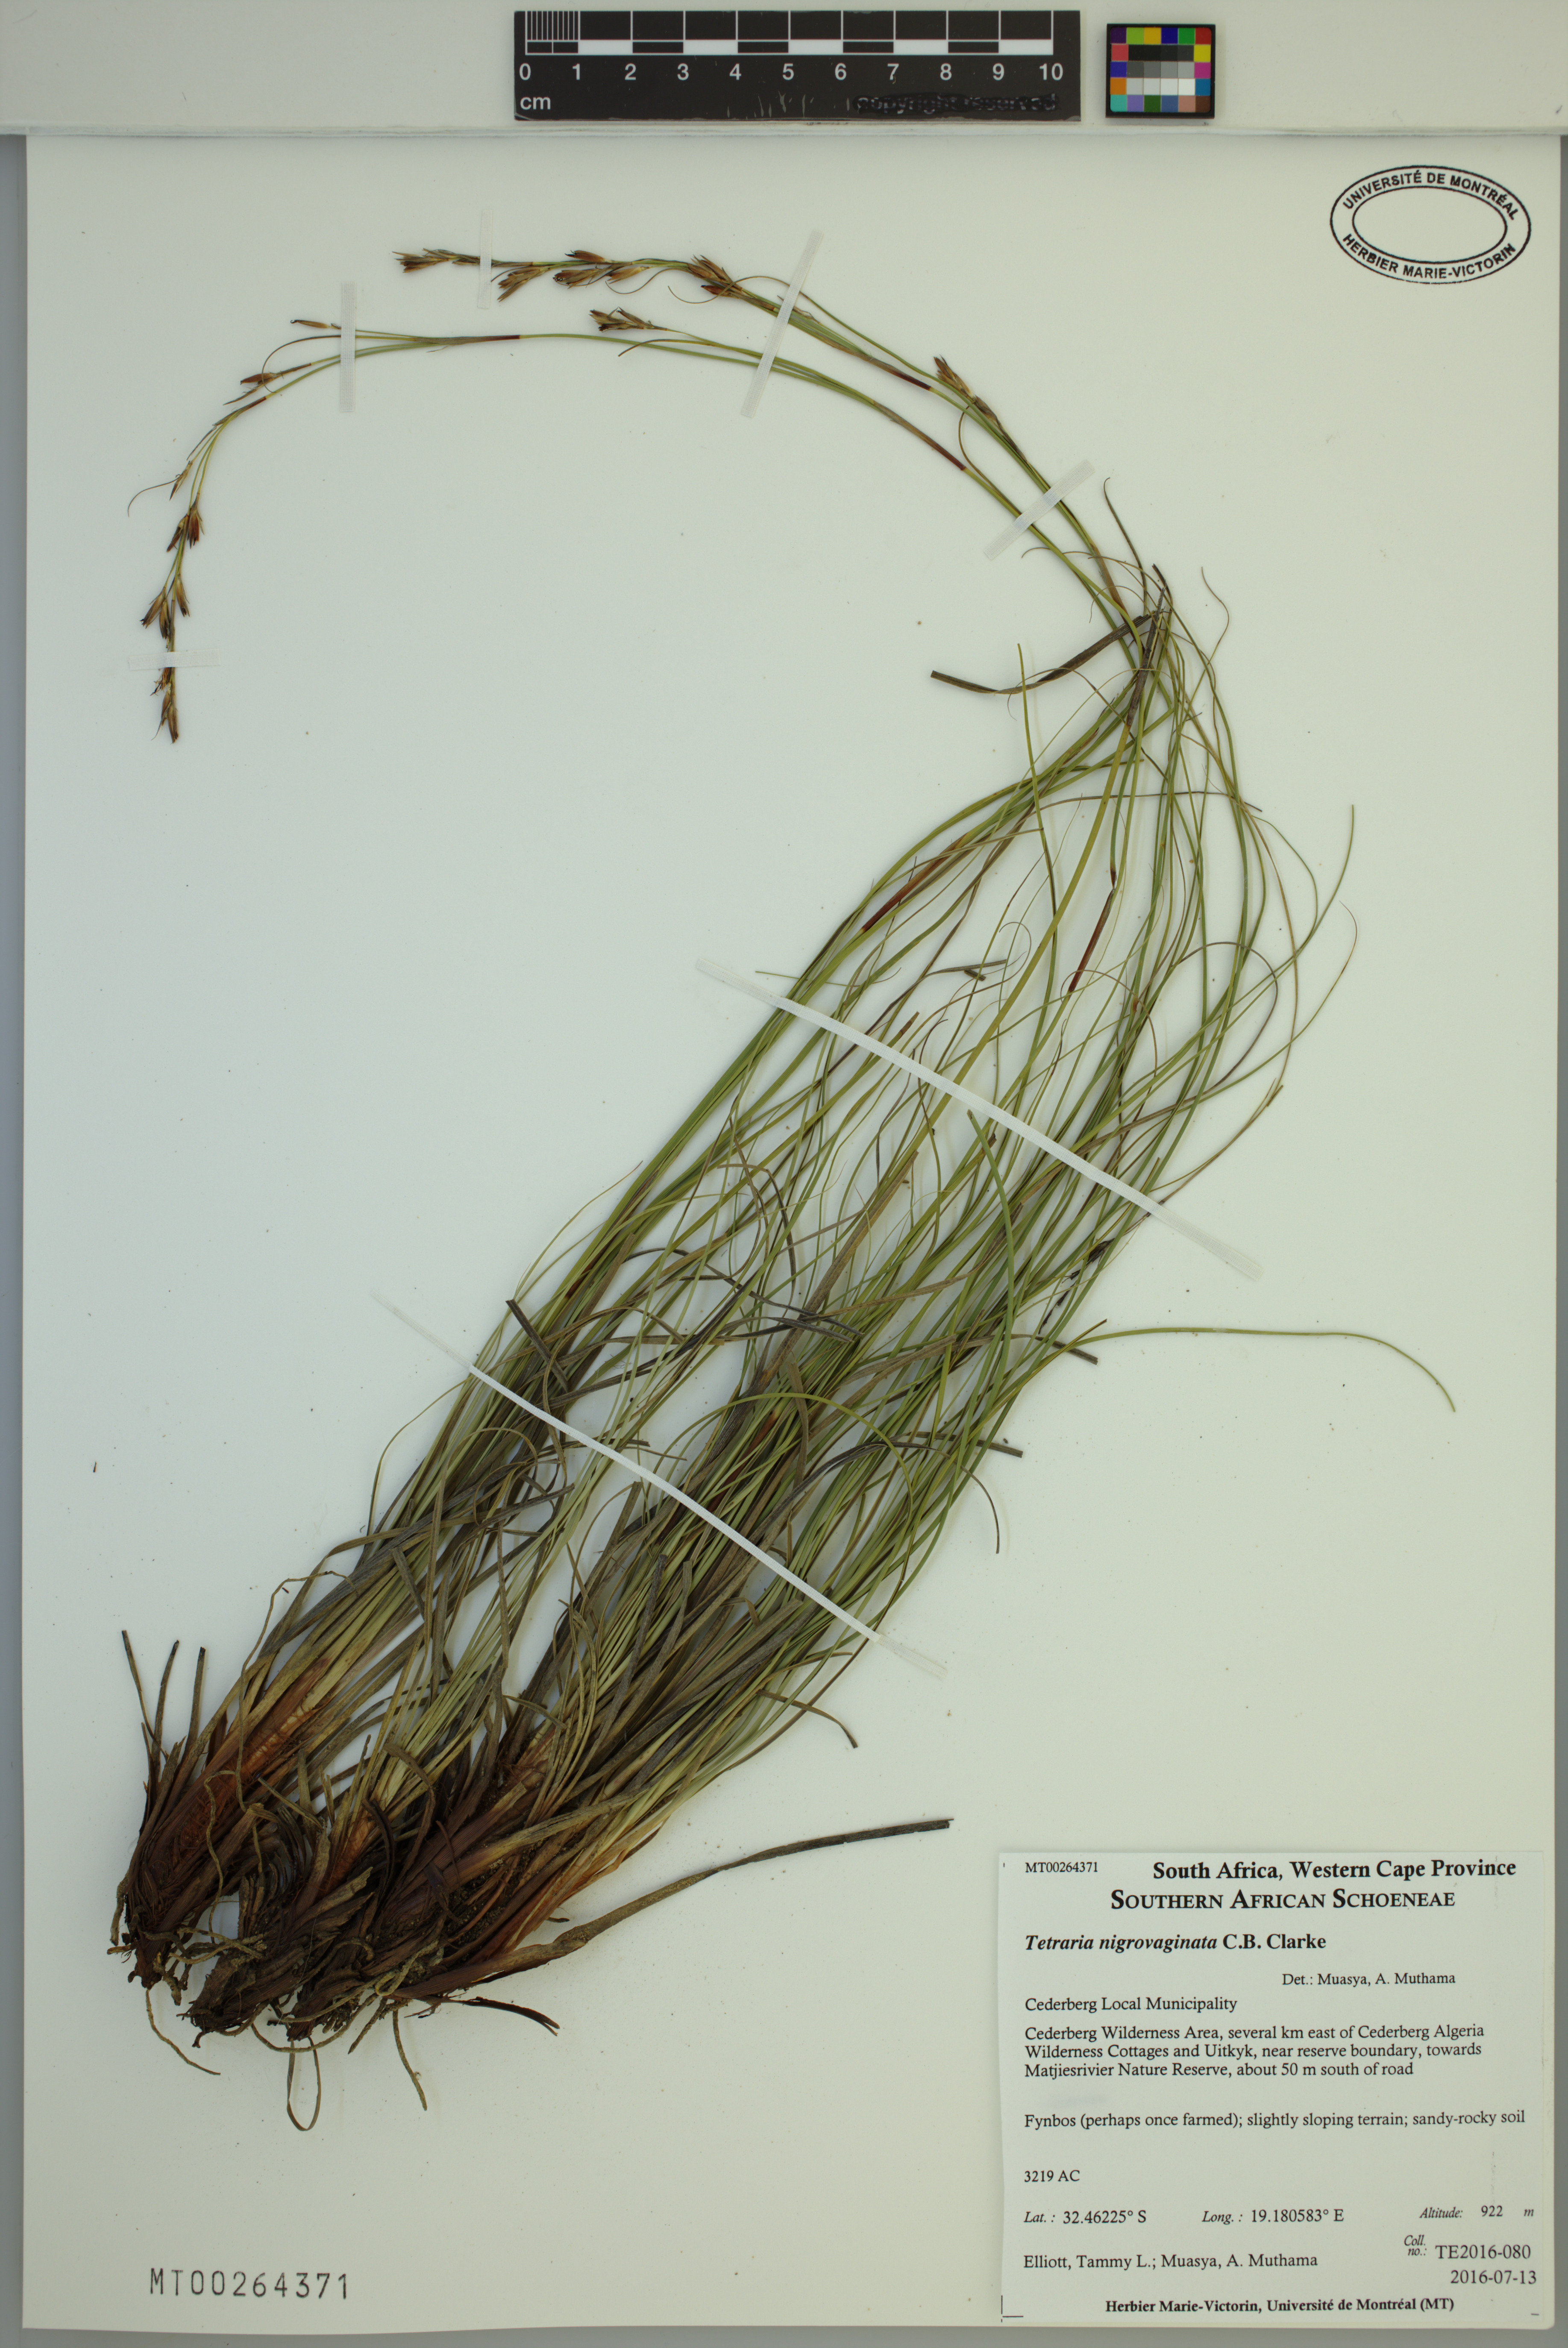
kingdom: Plantae
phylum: Tracheophyta
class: Liliopsida
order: Poales
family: Cyperaceae
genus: Tetraria
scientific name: Tetraria nigrovaginata
